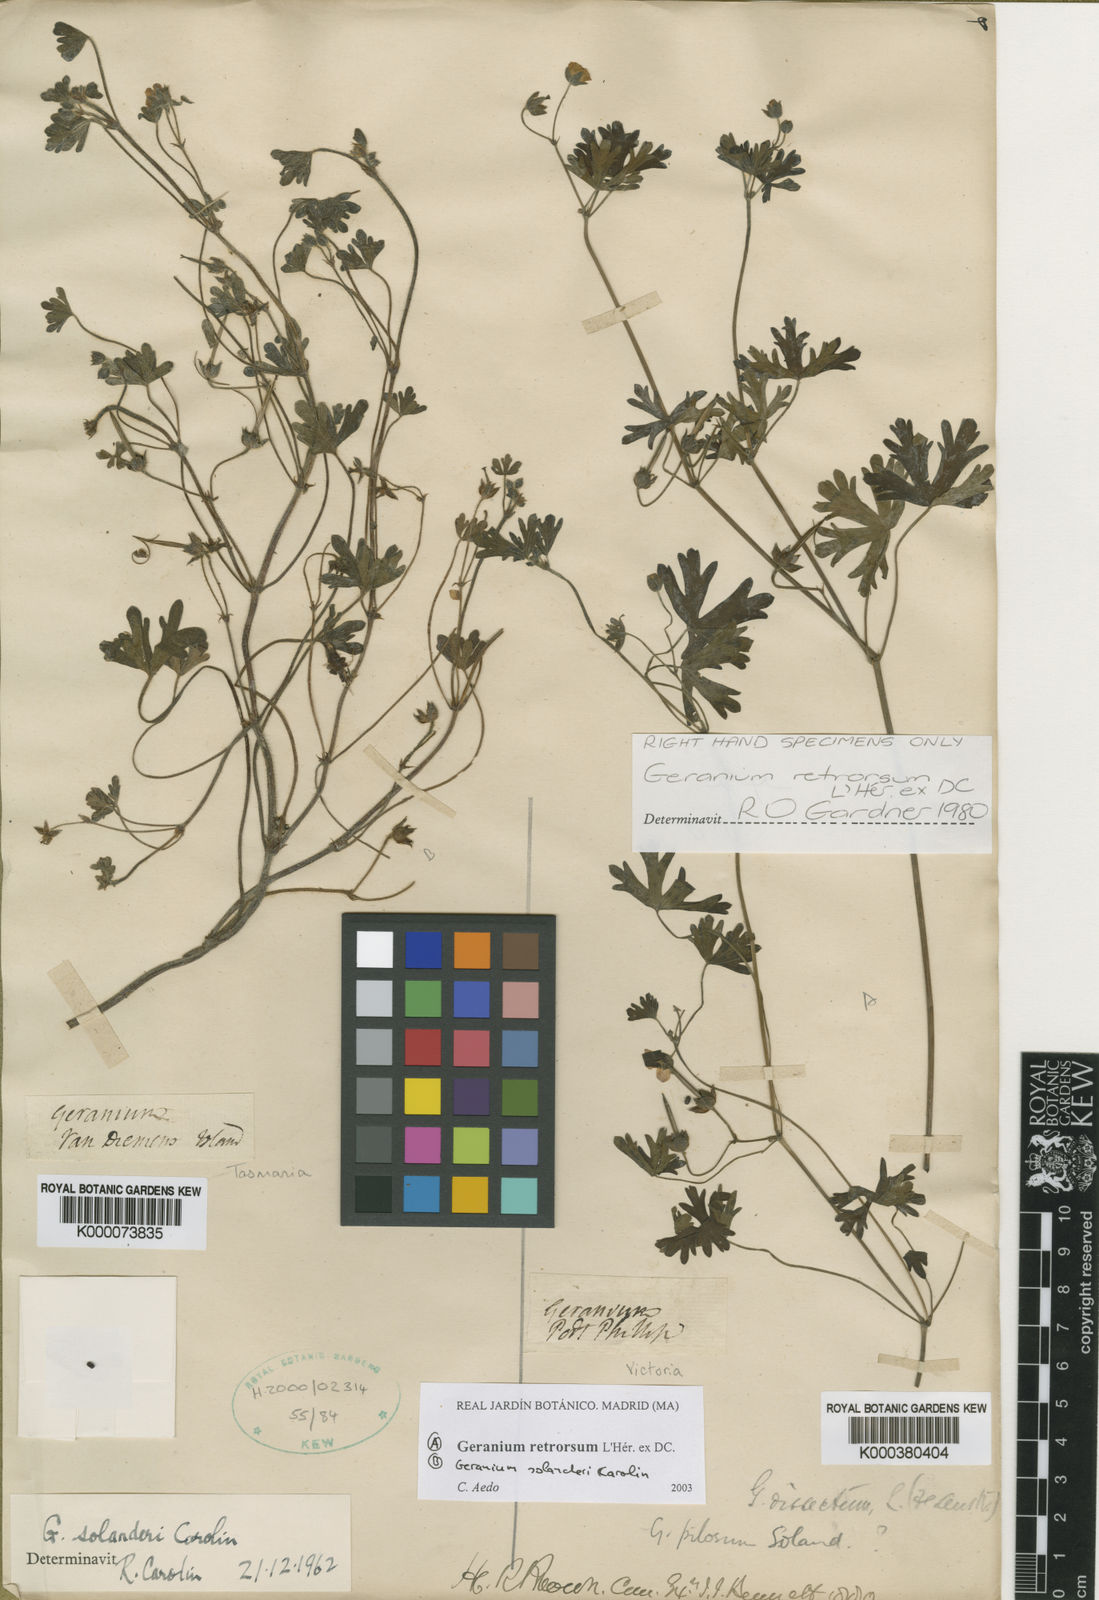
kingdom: Plantae
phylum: Tracheophyta
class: Magnoliopsida
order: Geraniales
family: Geraniaceae
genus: Geranium
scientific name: Geranium solanderi
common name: Solander's geranium
